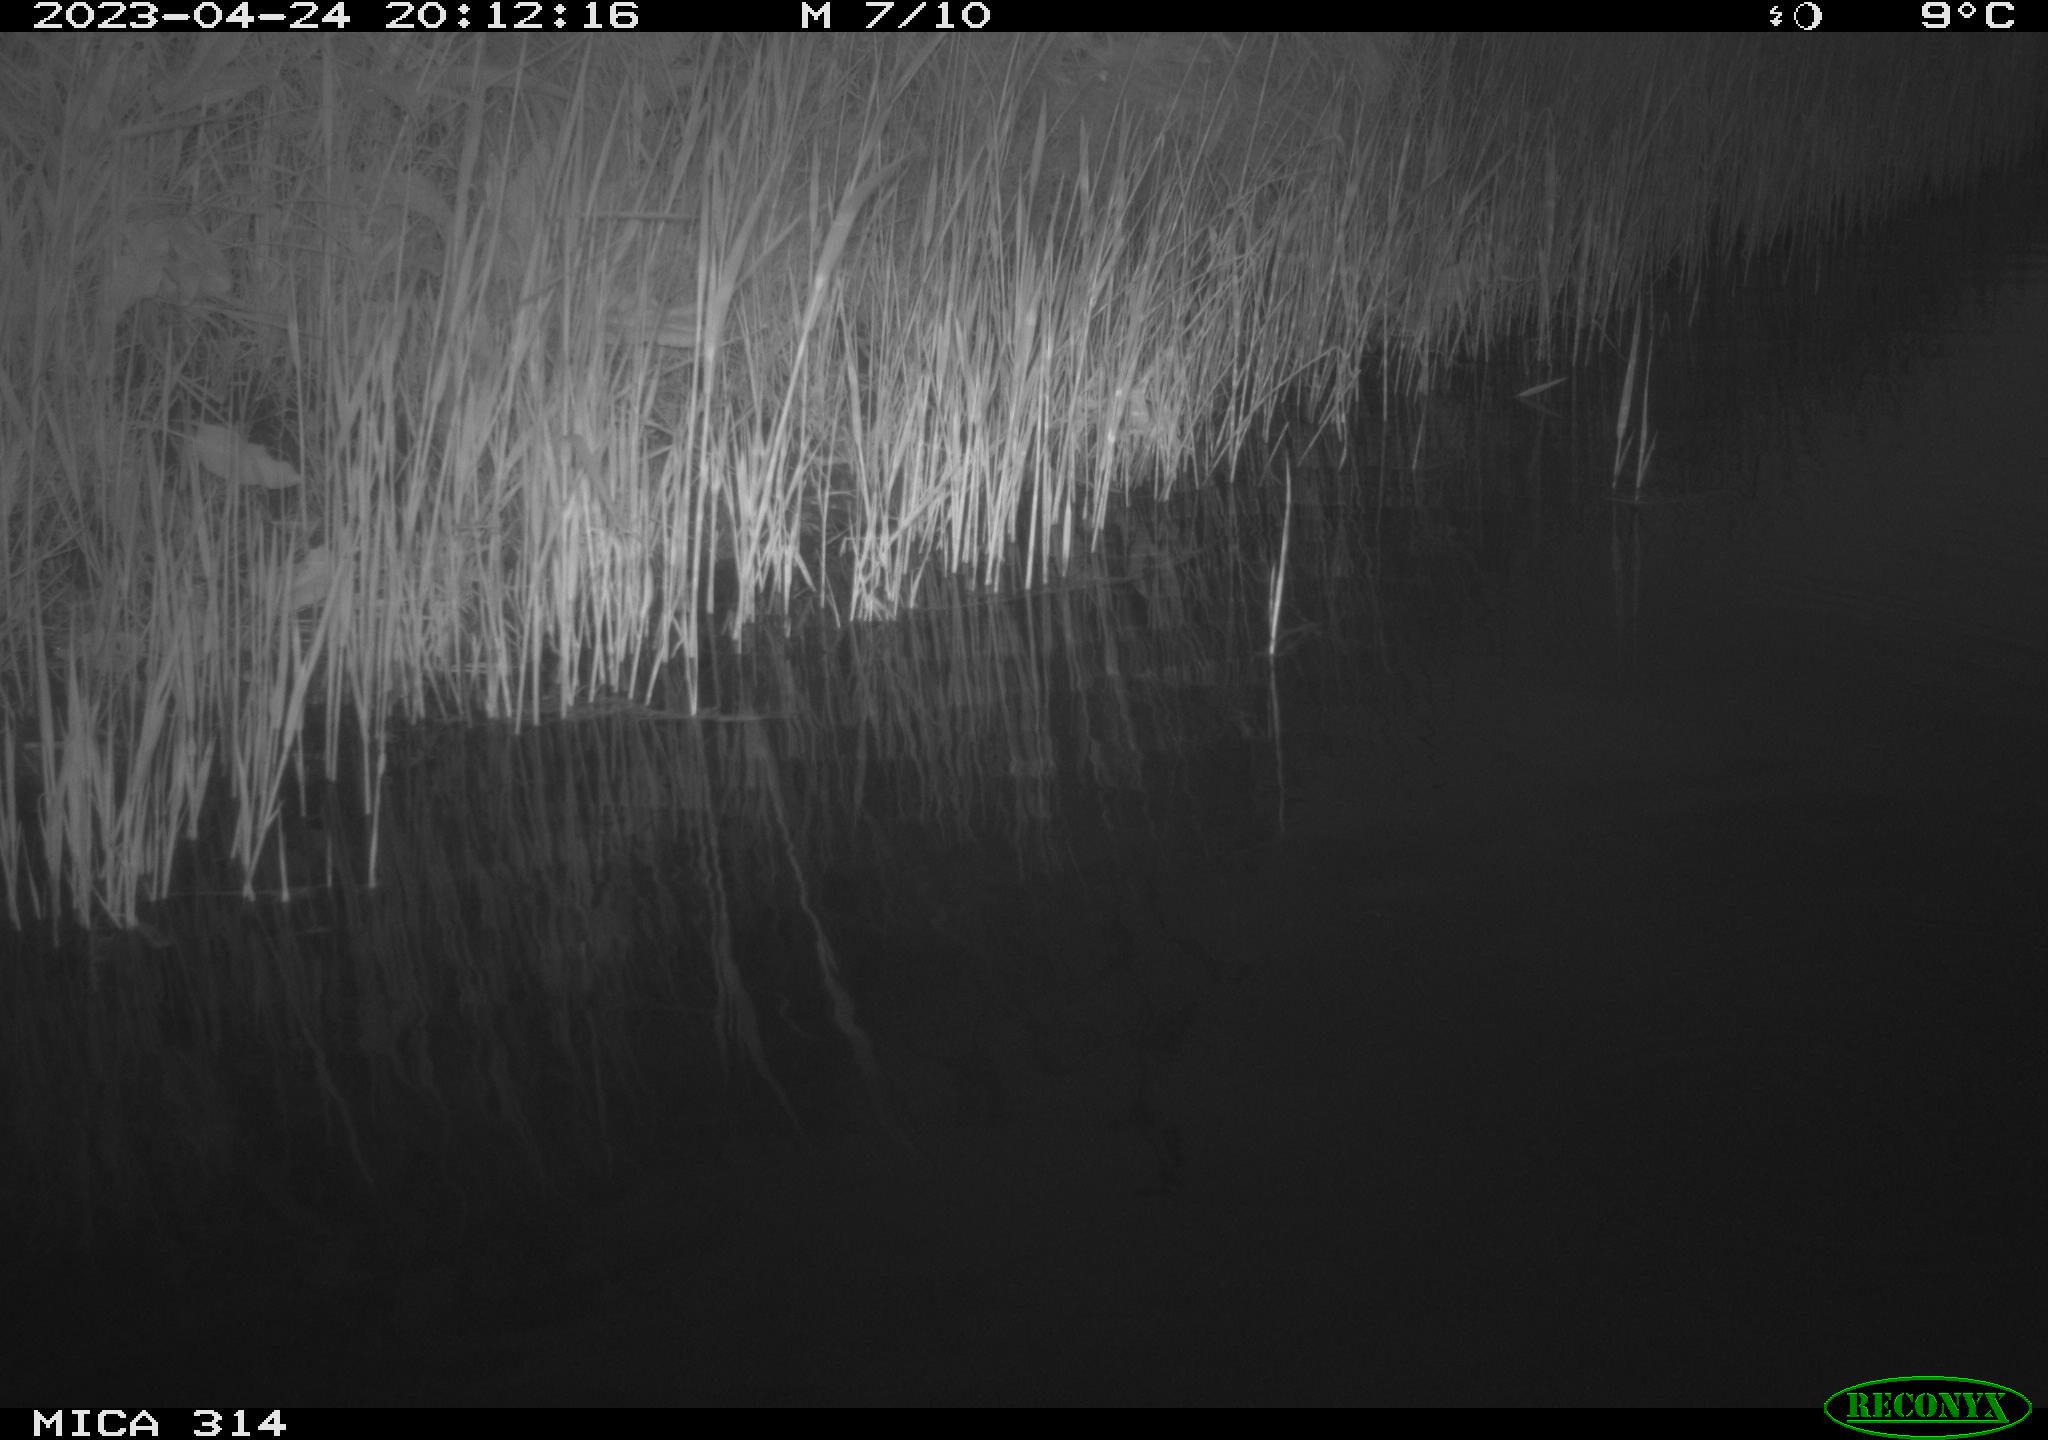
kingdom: Animalia
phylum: Chordata
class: Aves
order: Gruiformes
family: Rallidae
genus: Fulica
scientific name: Fulica atra
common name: Eurasian coot
